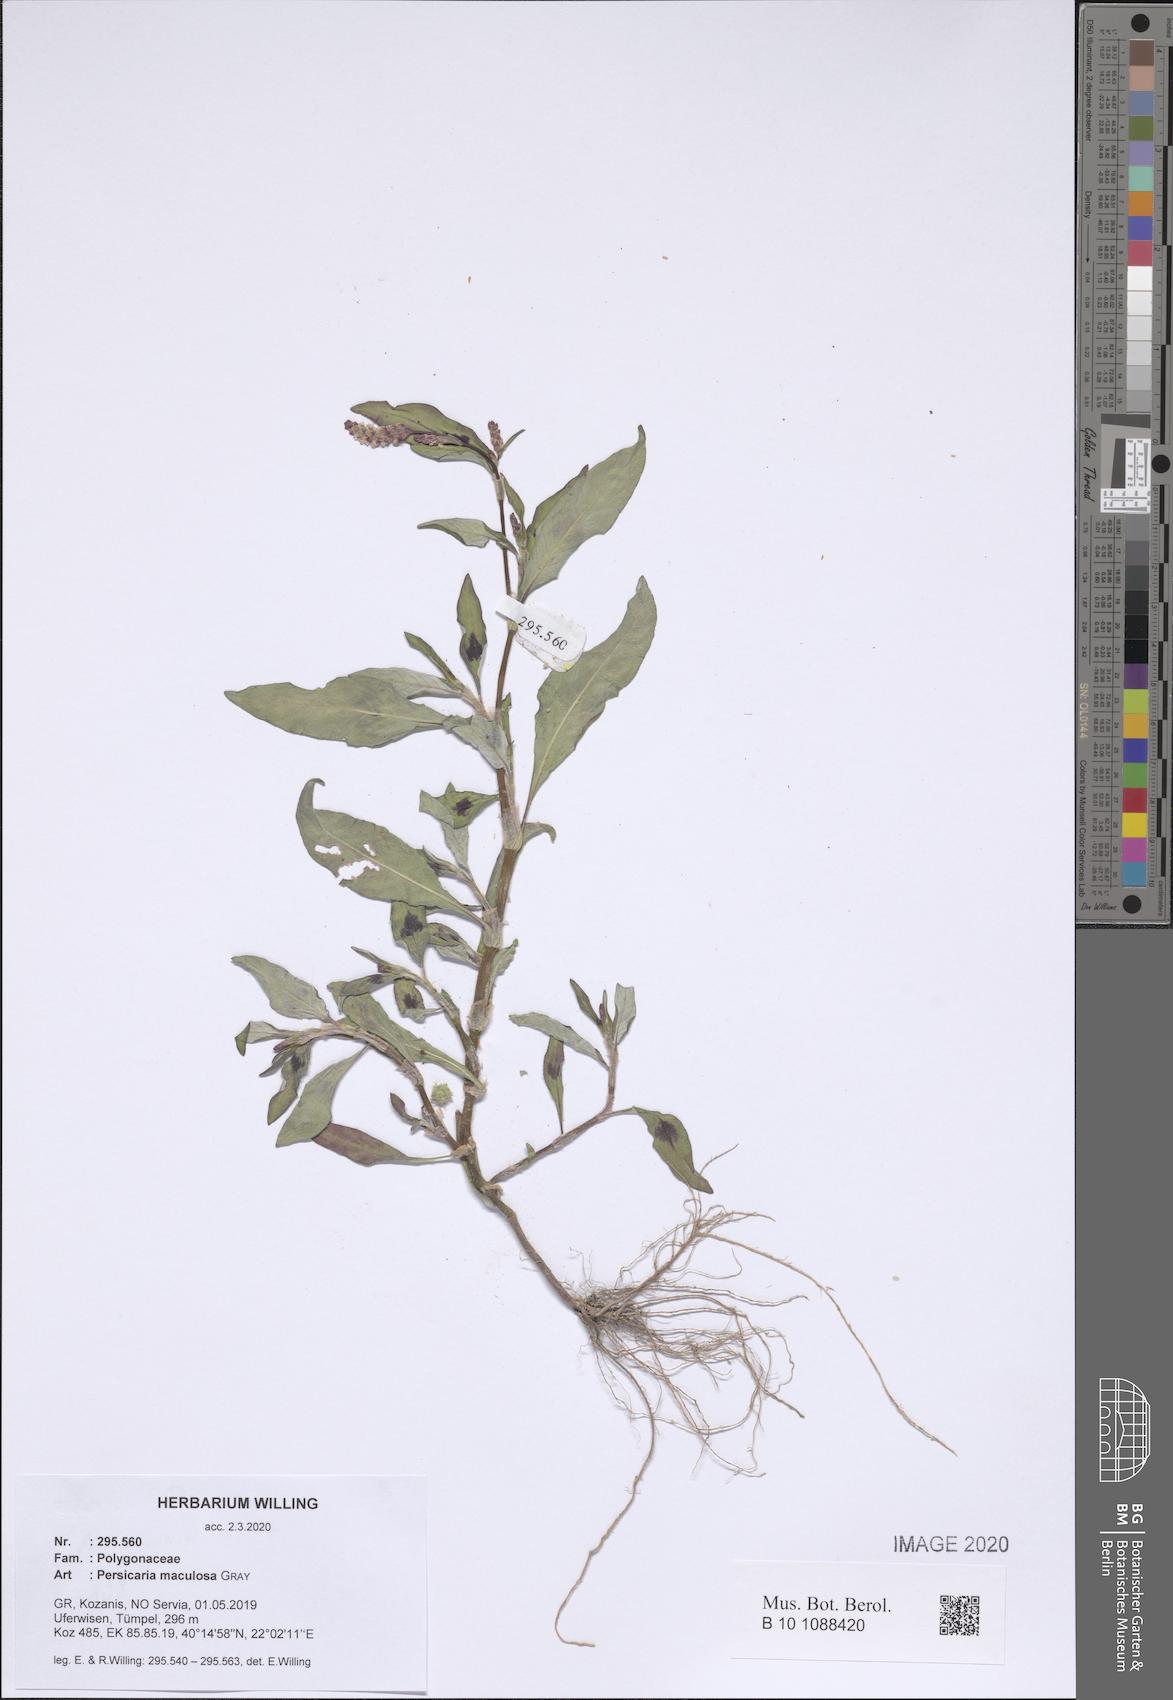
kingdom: Plantae
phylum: Tracheophyta
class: Magnoliopsida
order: Caryophyllales
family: Polygonaceae
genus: Persicaria
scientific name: Persicaria maculosa
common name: Redshank
